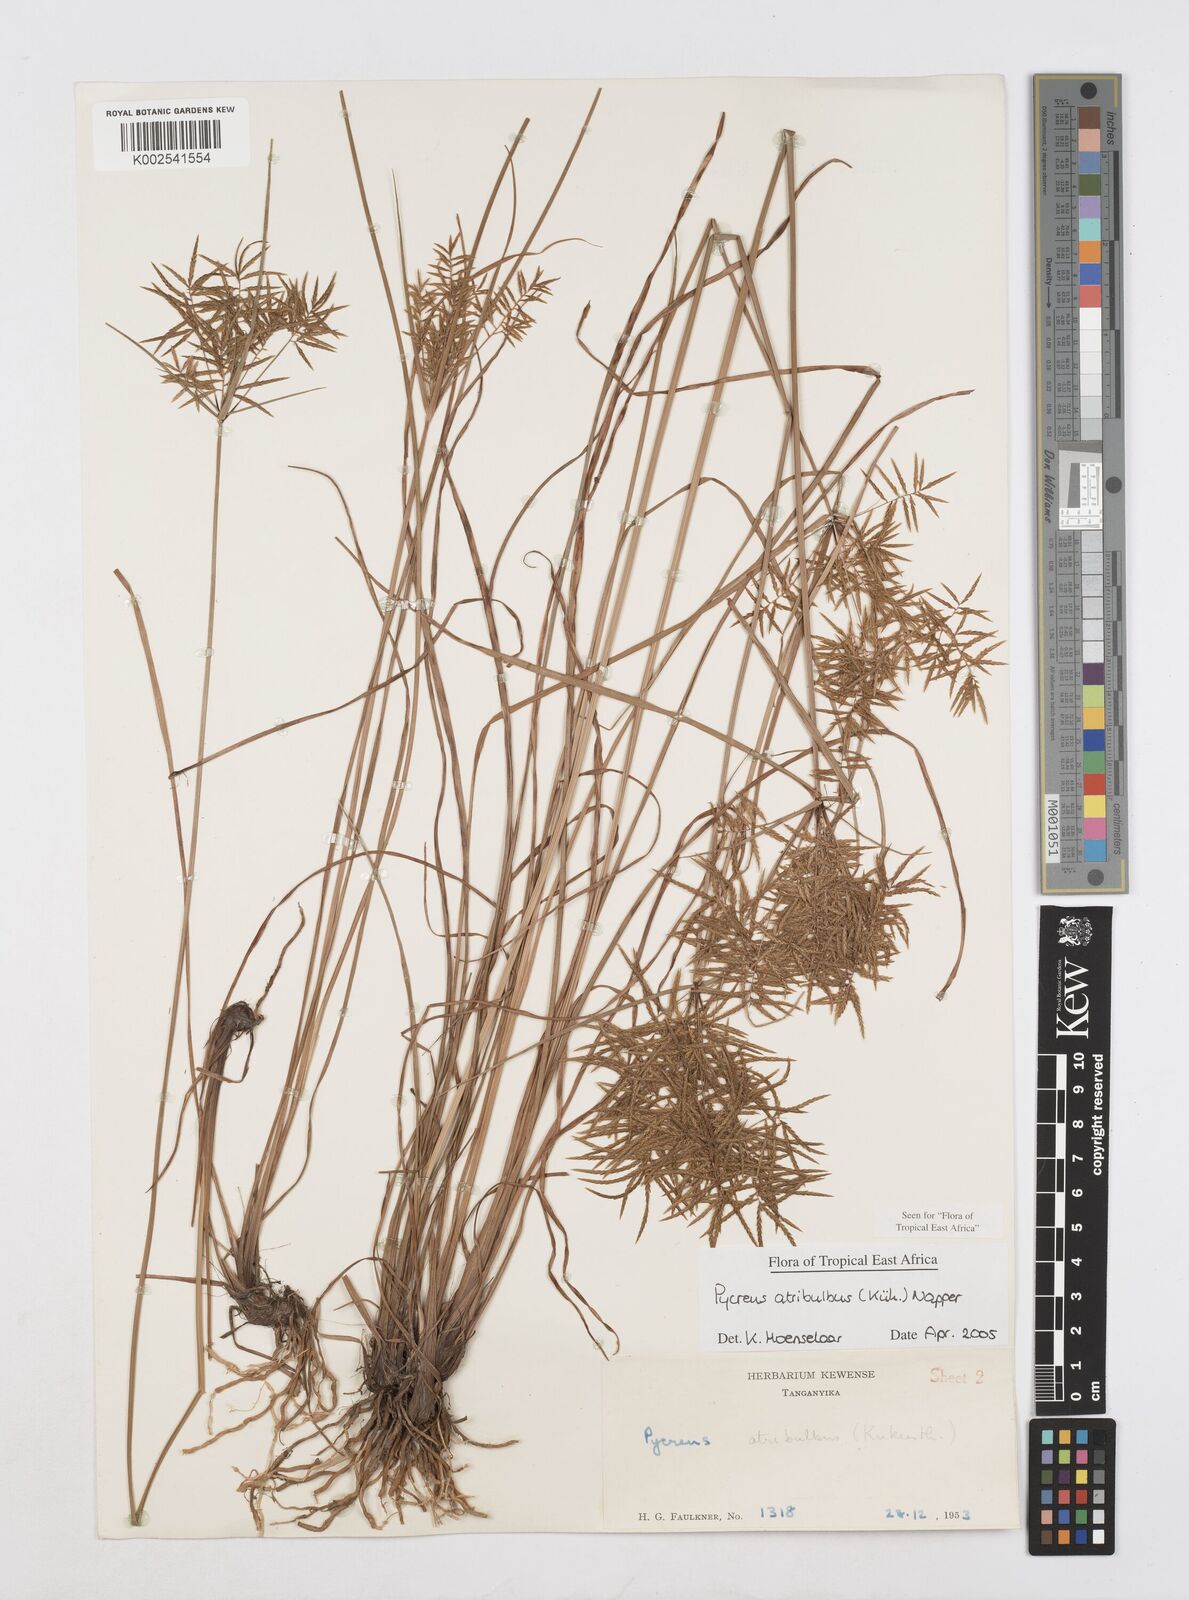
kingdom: Plantae
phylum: Tracheophyta
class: Liliopsida
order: Poales
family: Cyperaceae
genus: Cyperus
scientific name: Cyperus intactus
